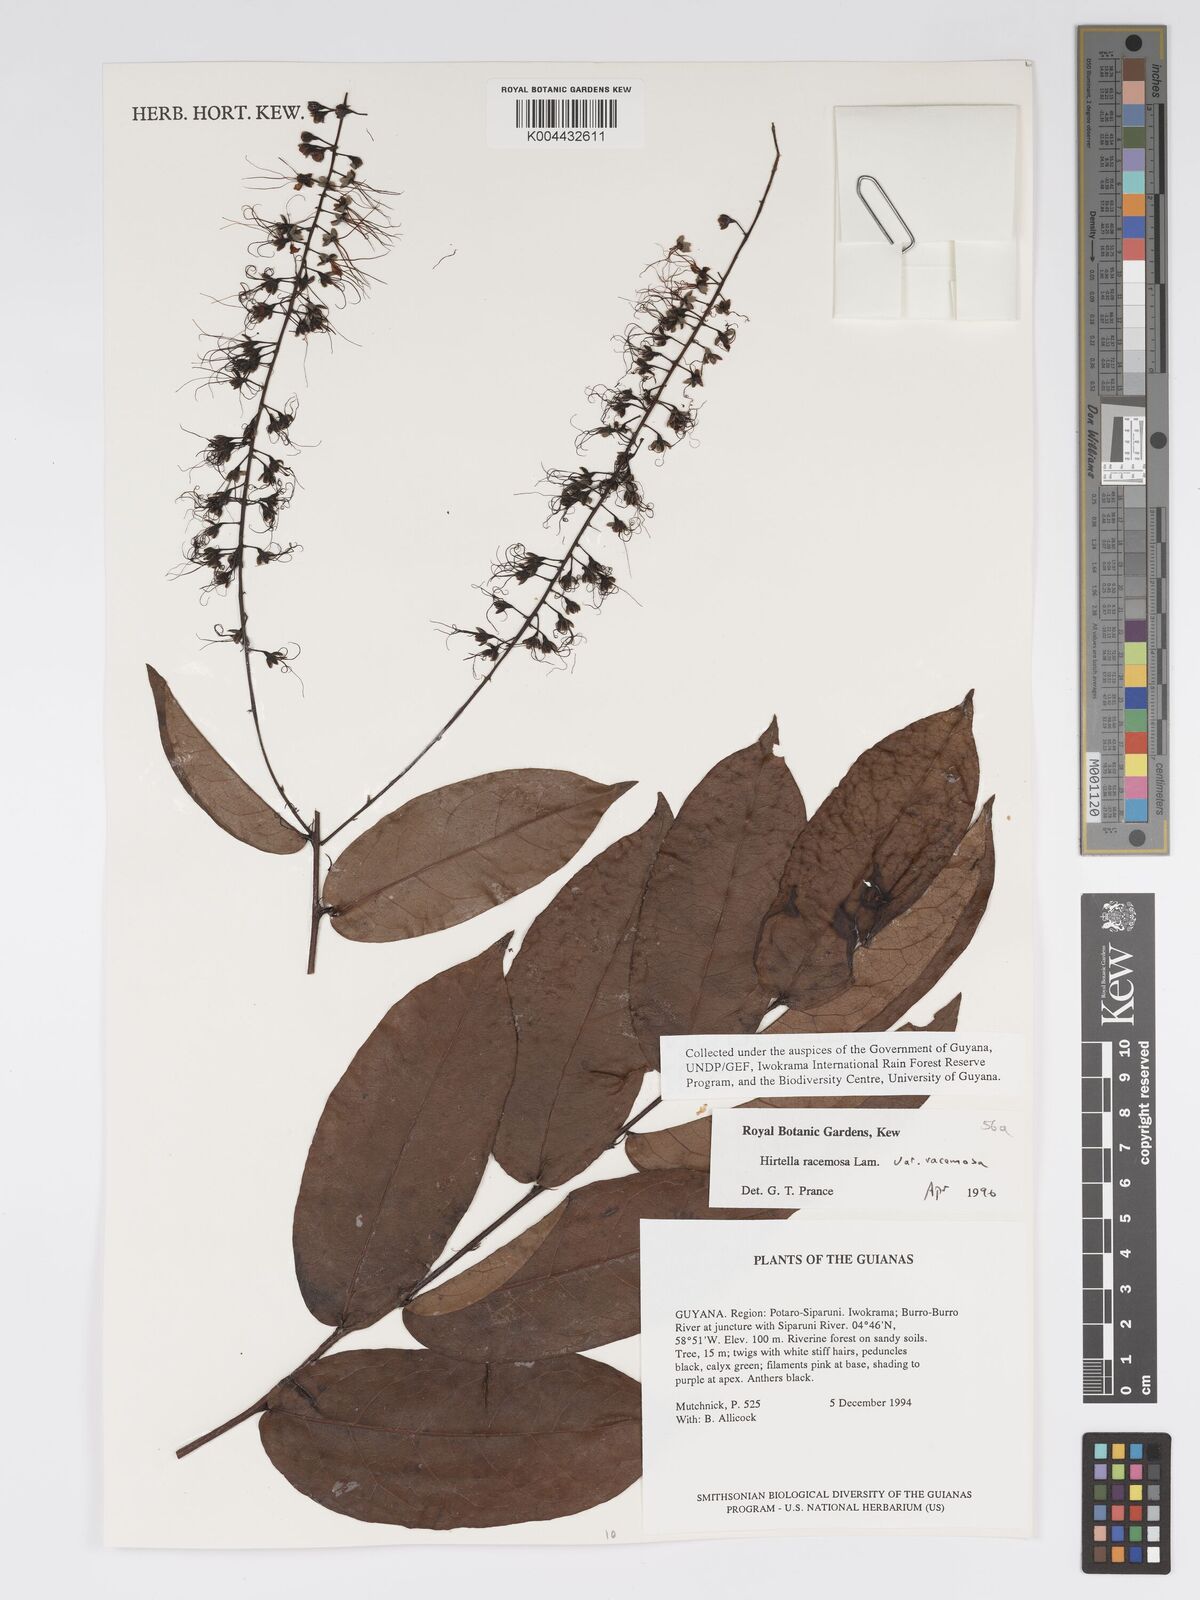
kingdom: Plantae
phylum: Tracheophyta
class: Magnoliopsida
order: Malpighiales
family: Chrysobalanaceae
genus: Hirtella
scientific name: Hirtella racemosa
